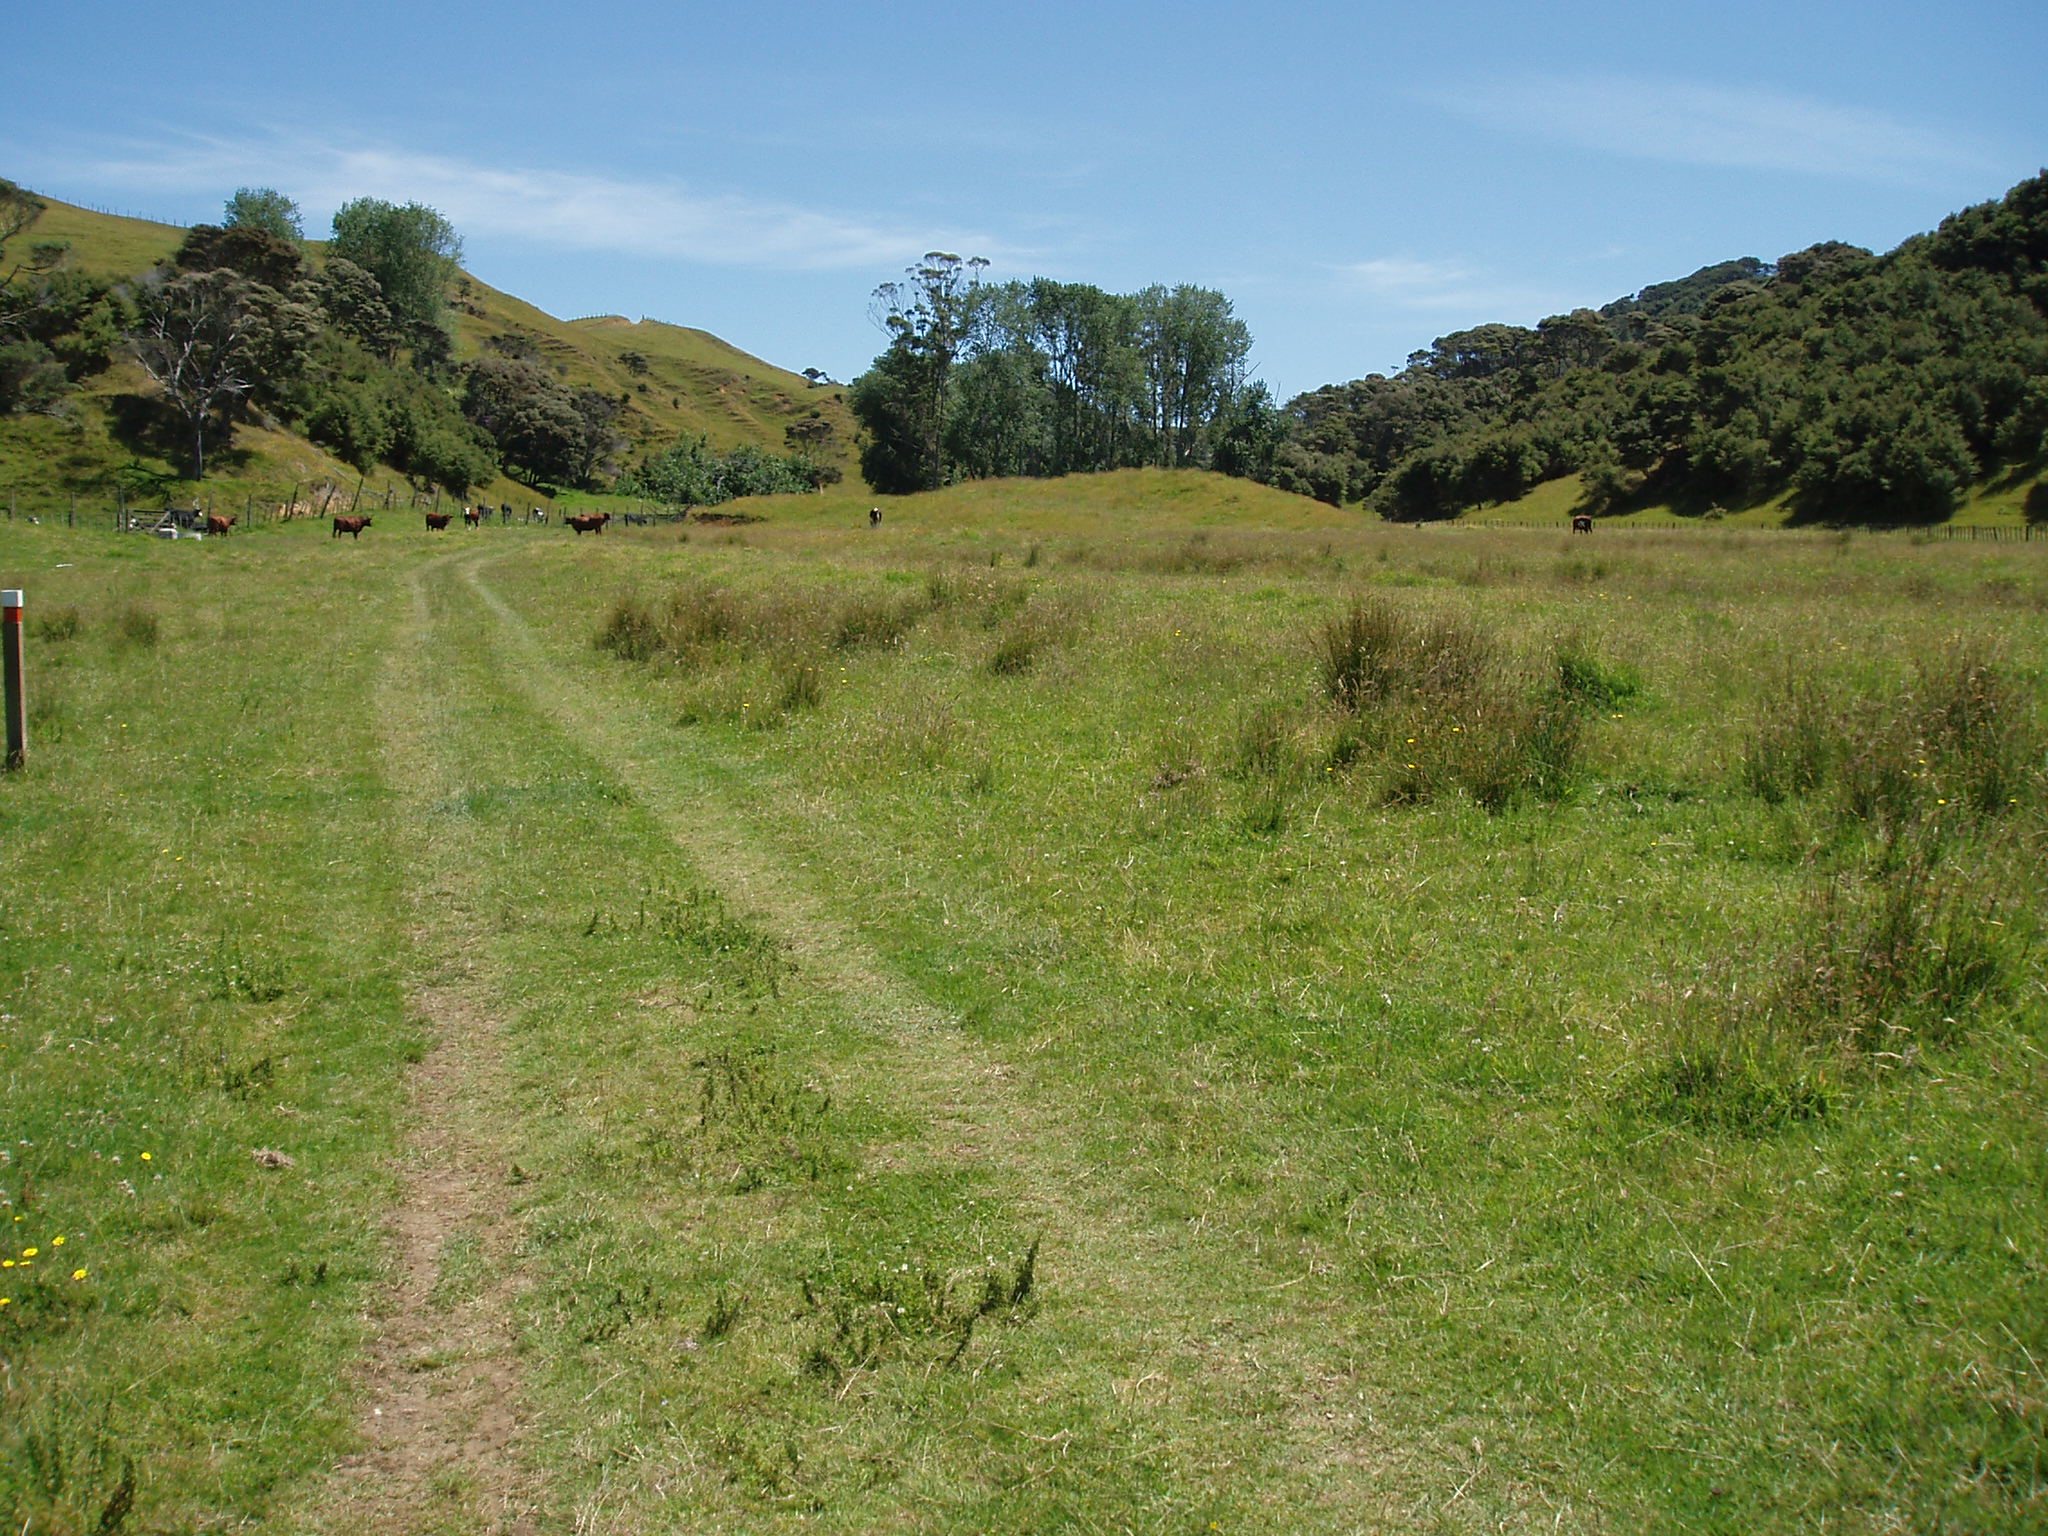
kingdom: Plantae
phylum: Tracheophyta
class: Magnoliopsida
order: Malpighiales
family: Salicaceae
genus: Populus
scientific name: Populus deltoides
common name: Eastern cottonwood
